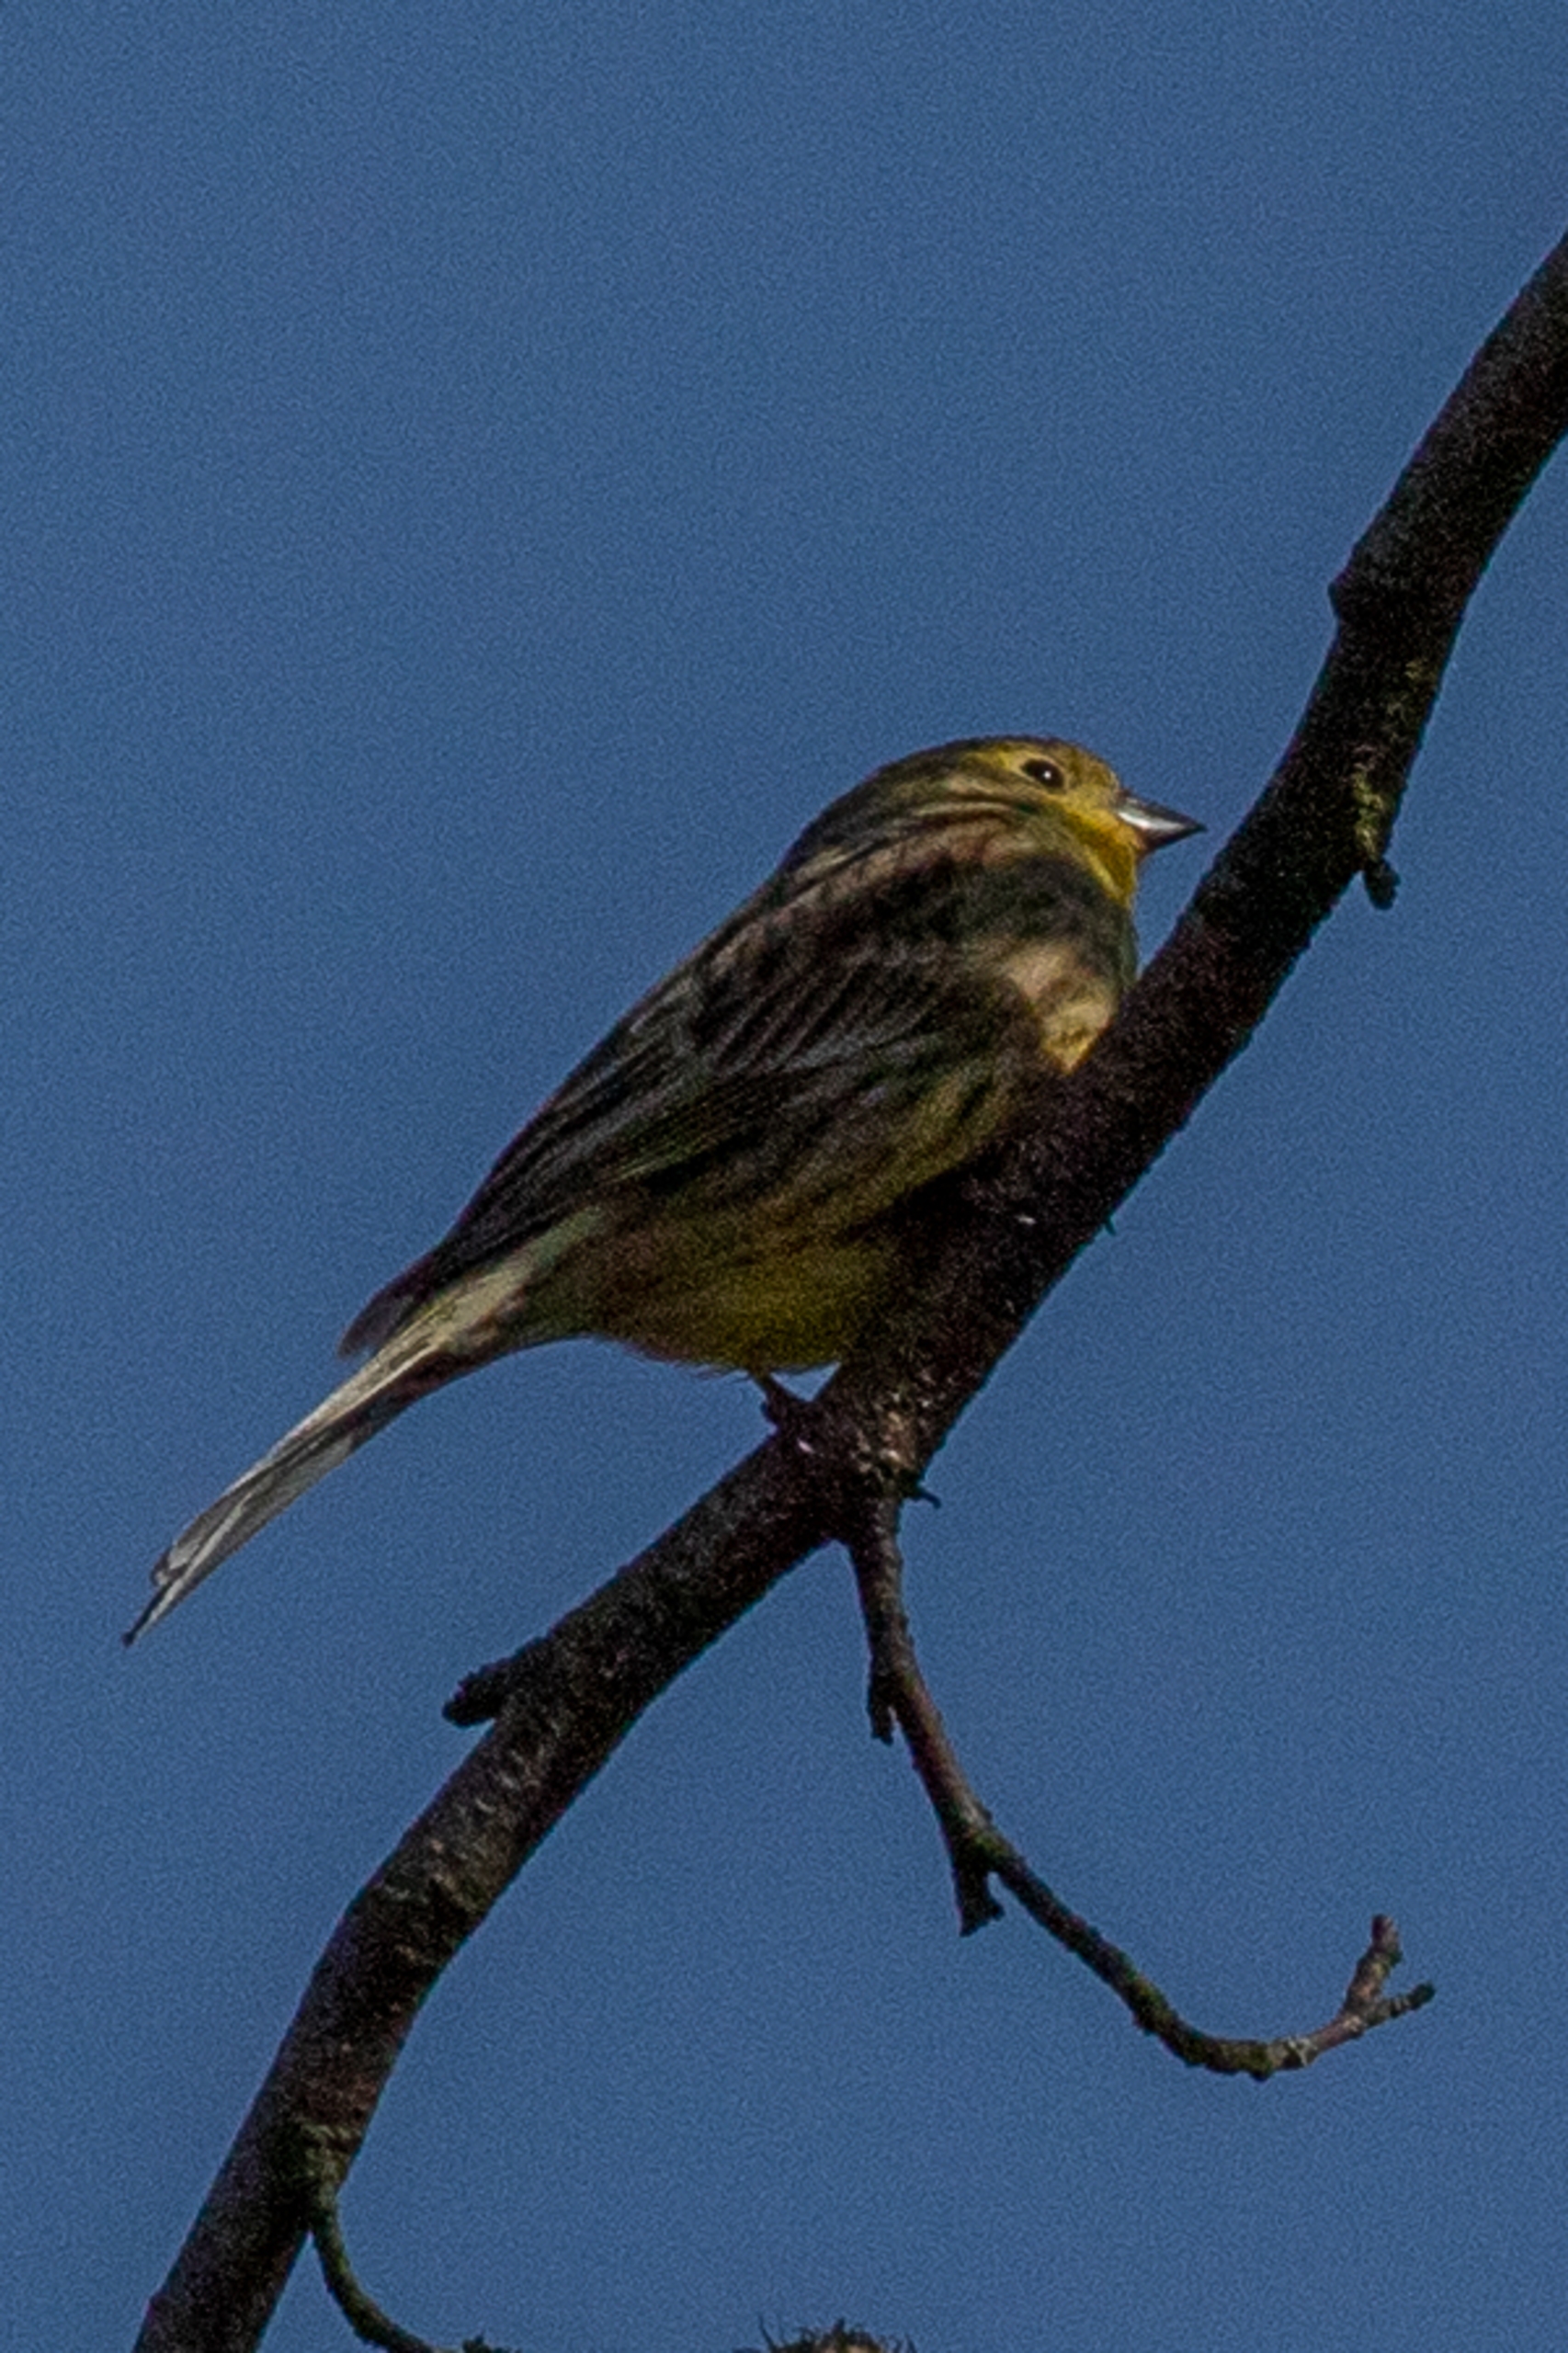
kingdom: Animalia
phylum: Chordata
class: Aves
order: Passeriformes
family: Emberizidae
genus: Emberiza
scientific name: Emberiza citrinella
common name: Gulspurv
